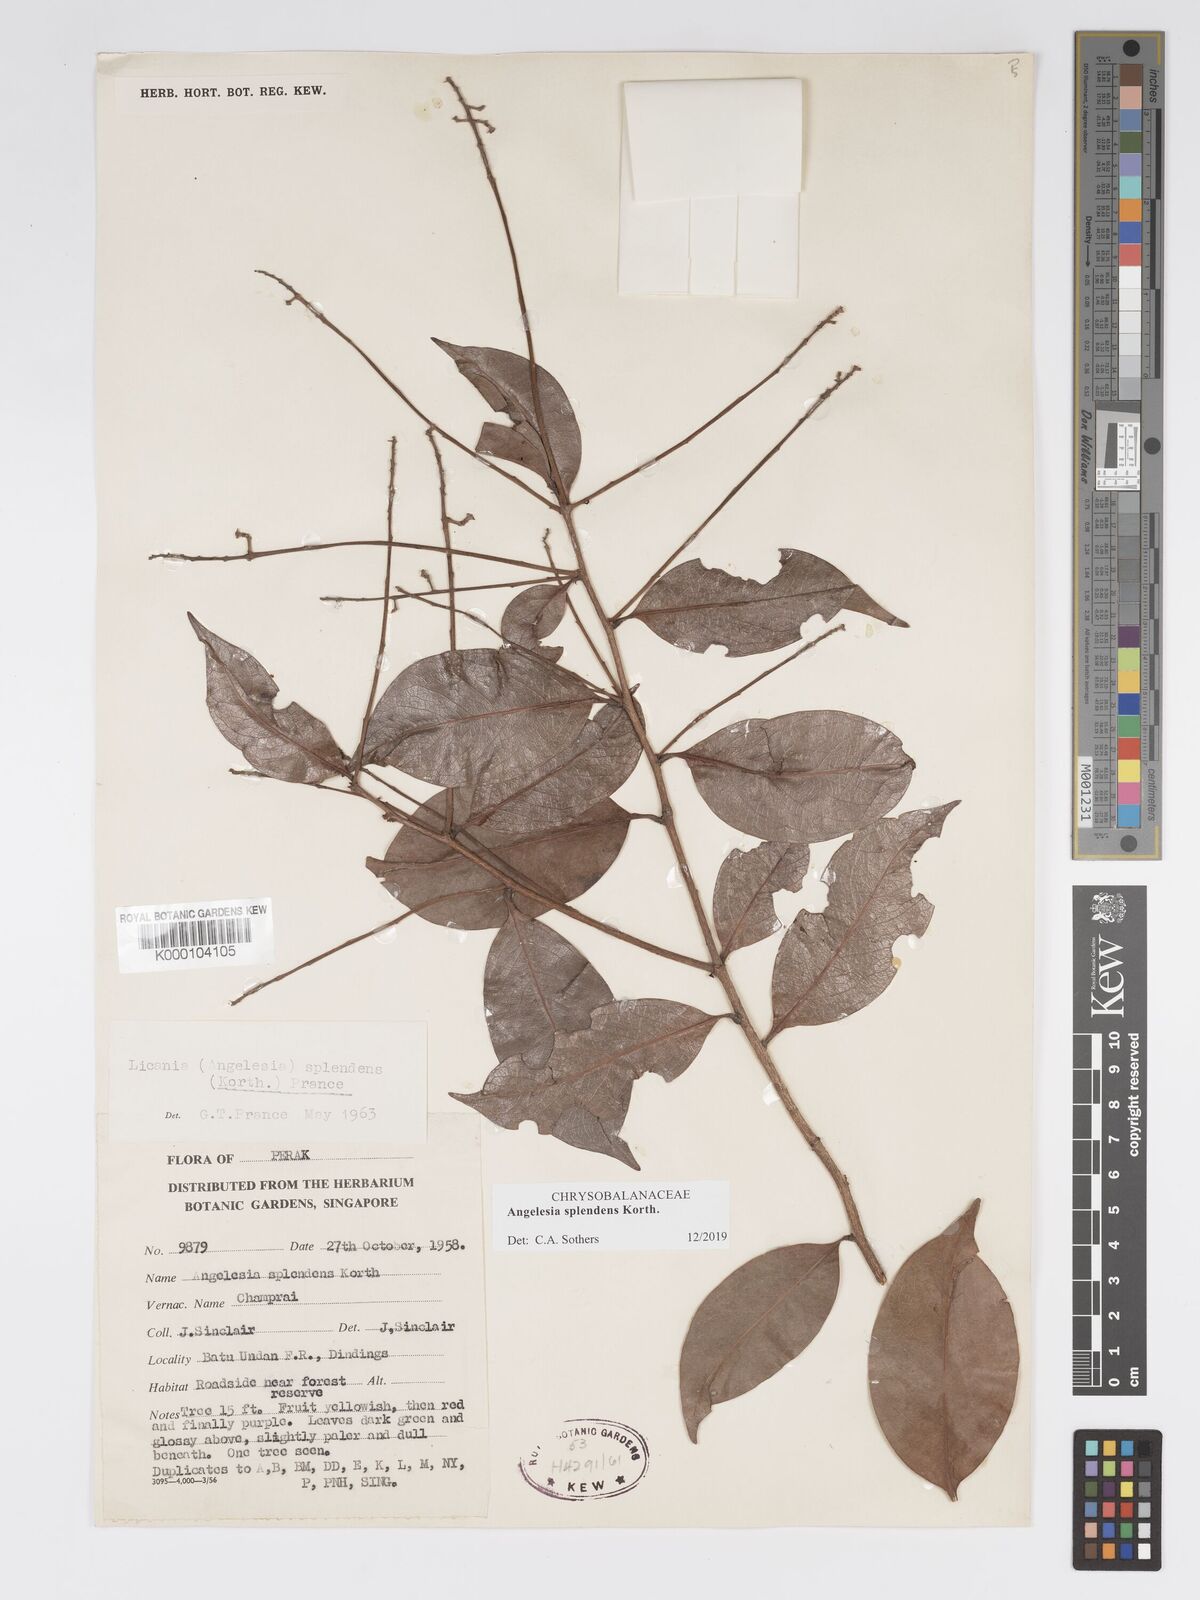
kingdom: Plantae
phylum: Tracheophyta
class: Magnoliopsida
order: Malpighiales
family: Chrysobalanaceae
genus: Angelesia
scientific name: Angelesia splendens
